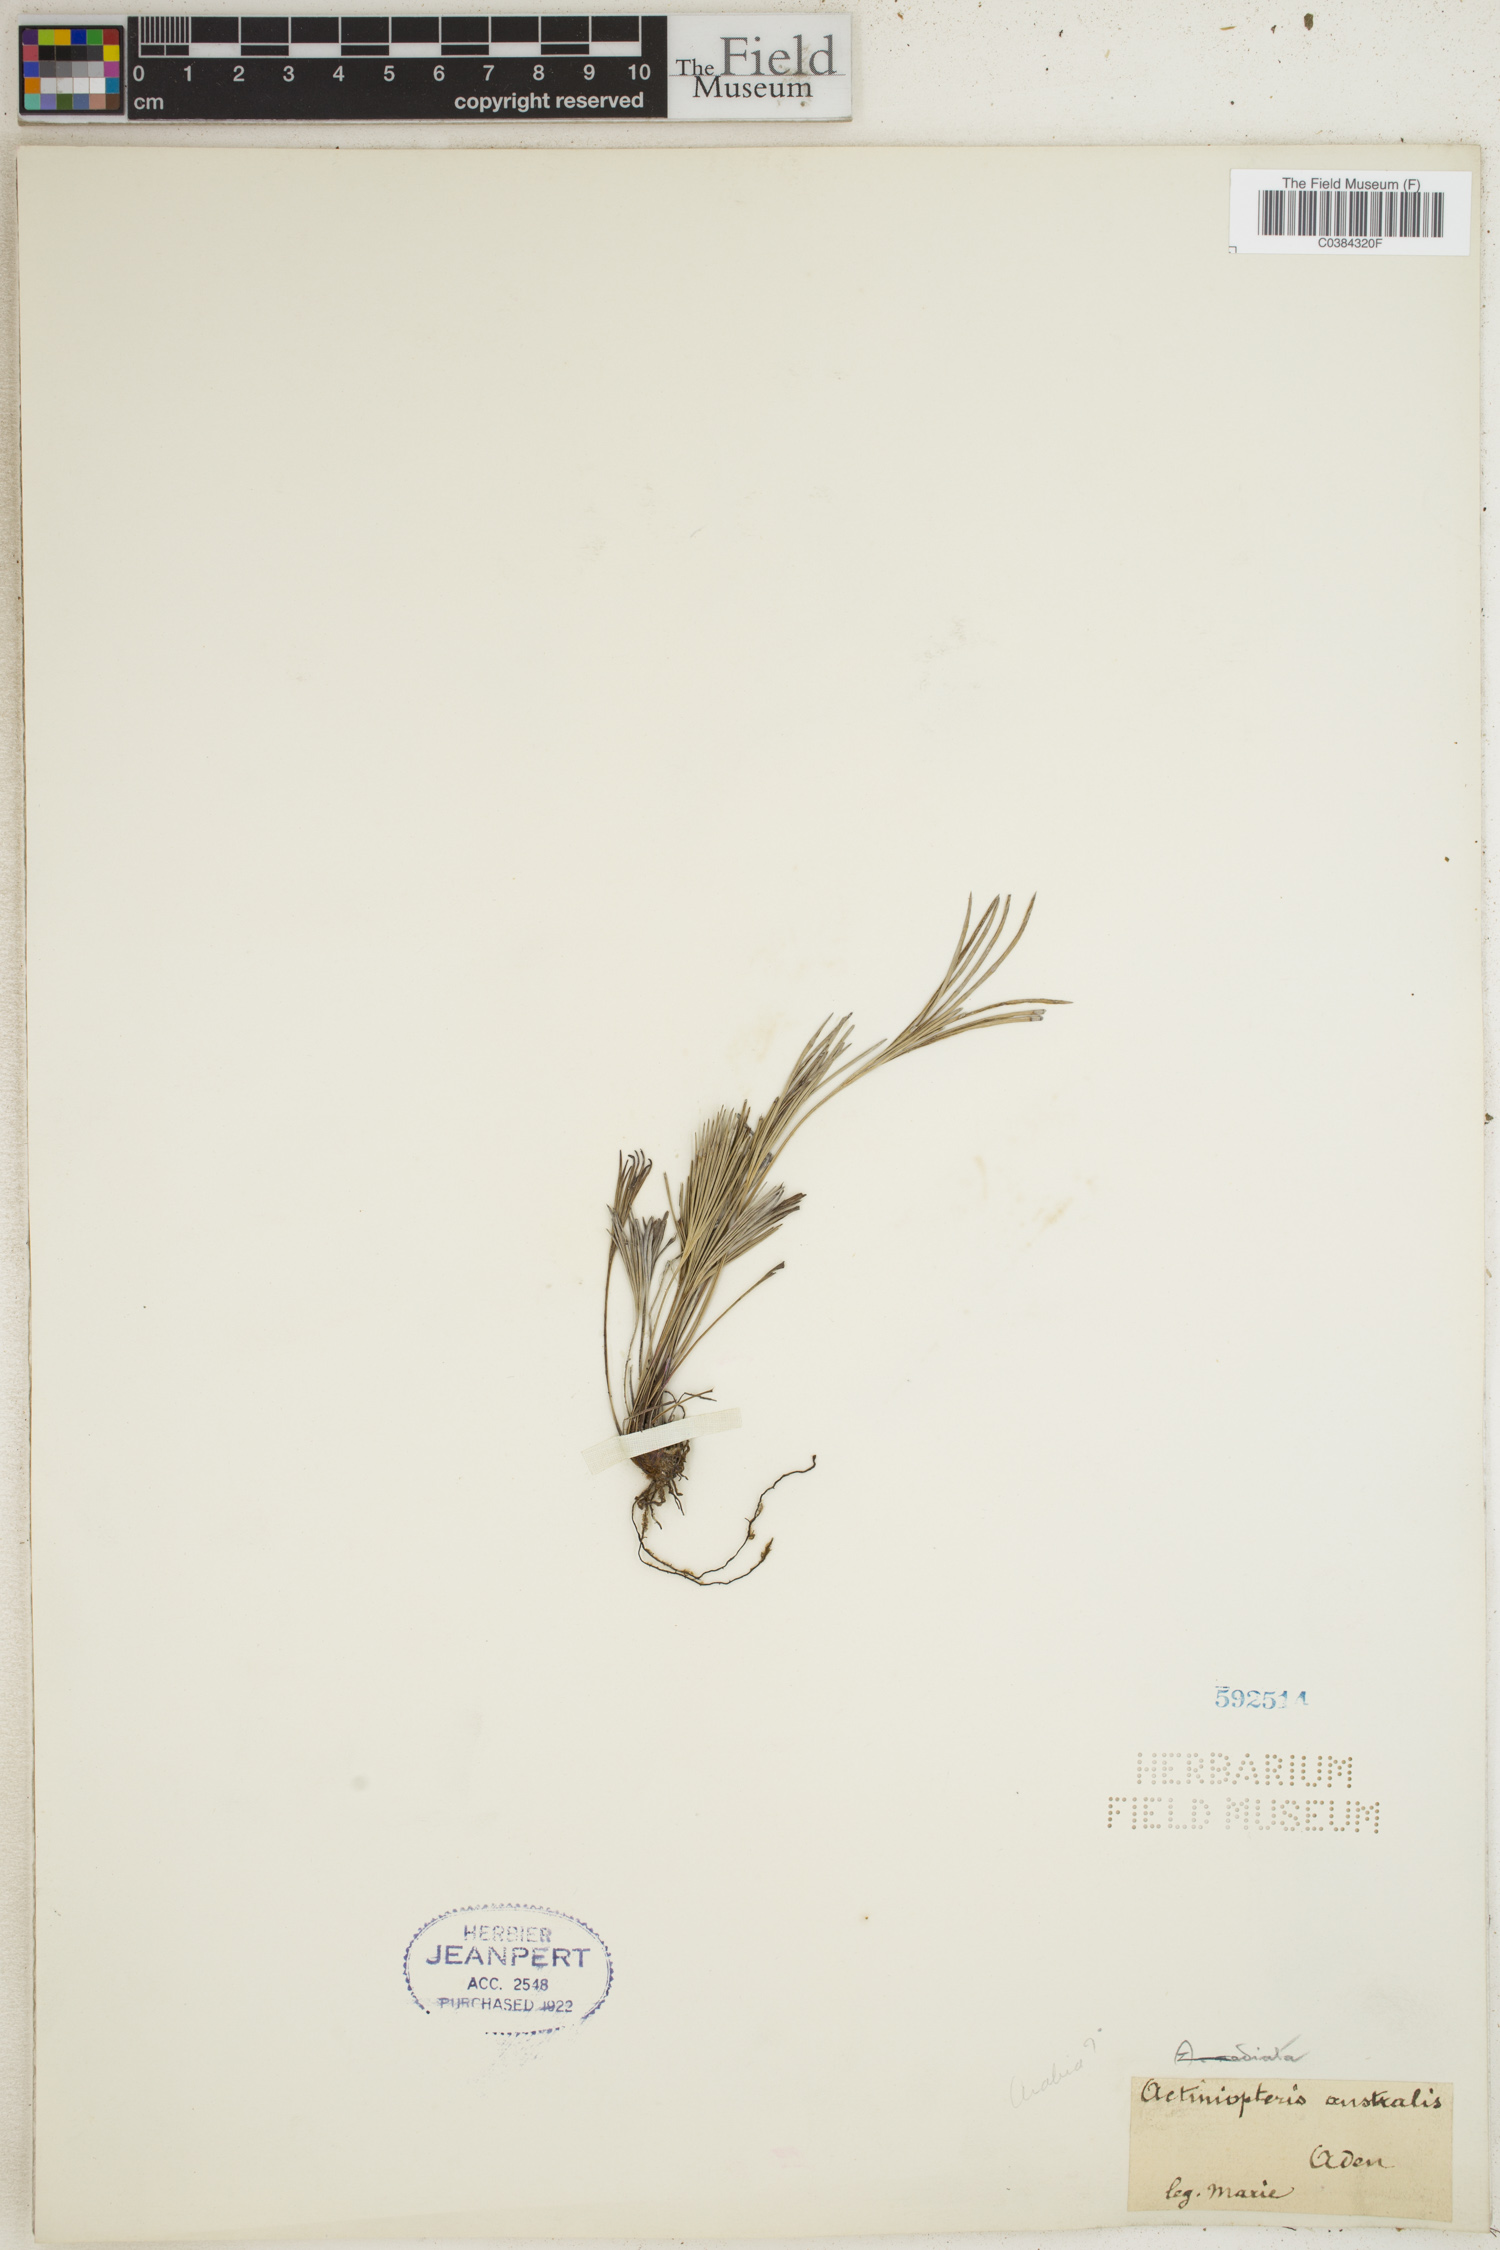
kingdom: Plantae
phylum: Tracheophyta
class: Polypodiopsida
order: Polypodiales
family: Pteridaceae
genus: Actiniopteris
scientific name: Actiniopteris australis
